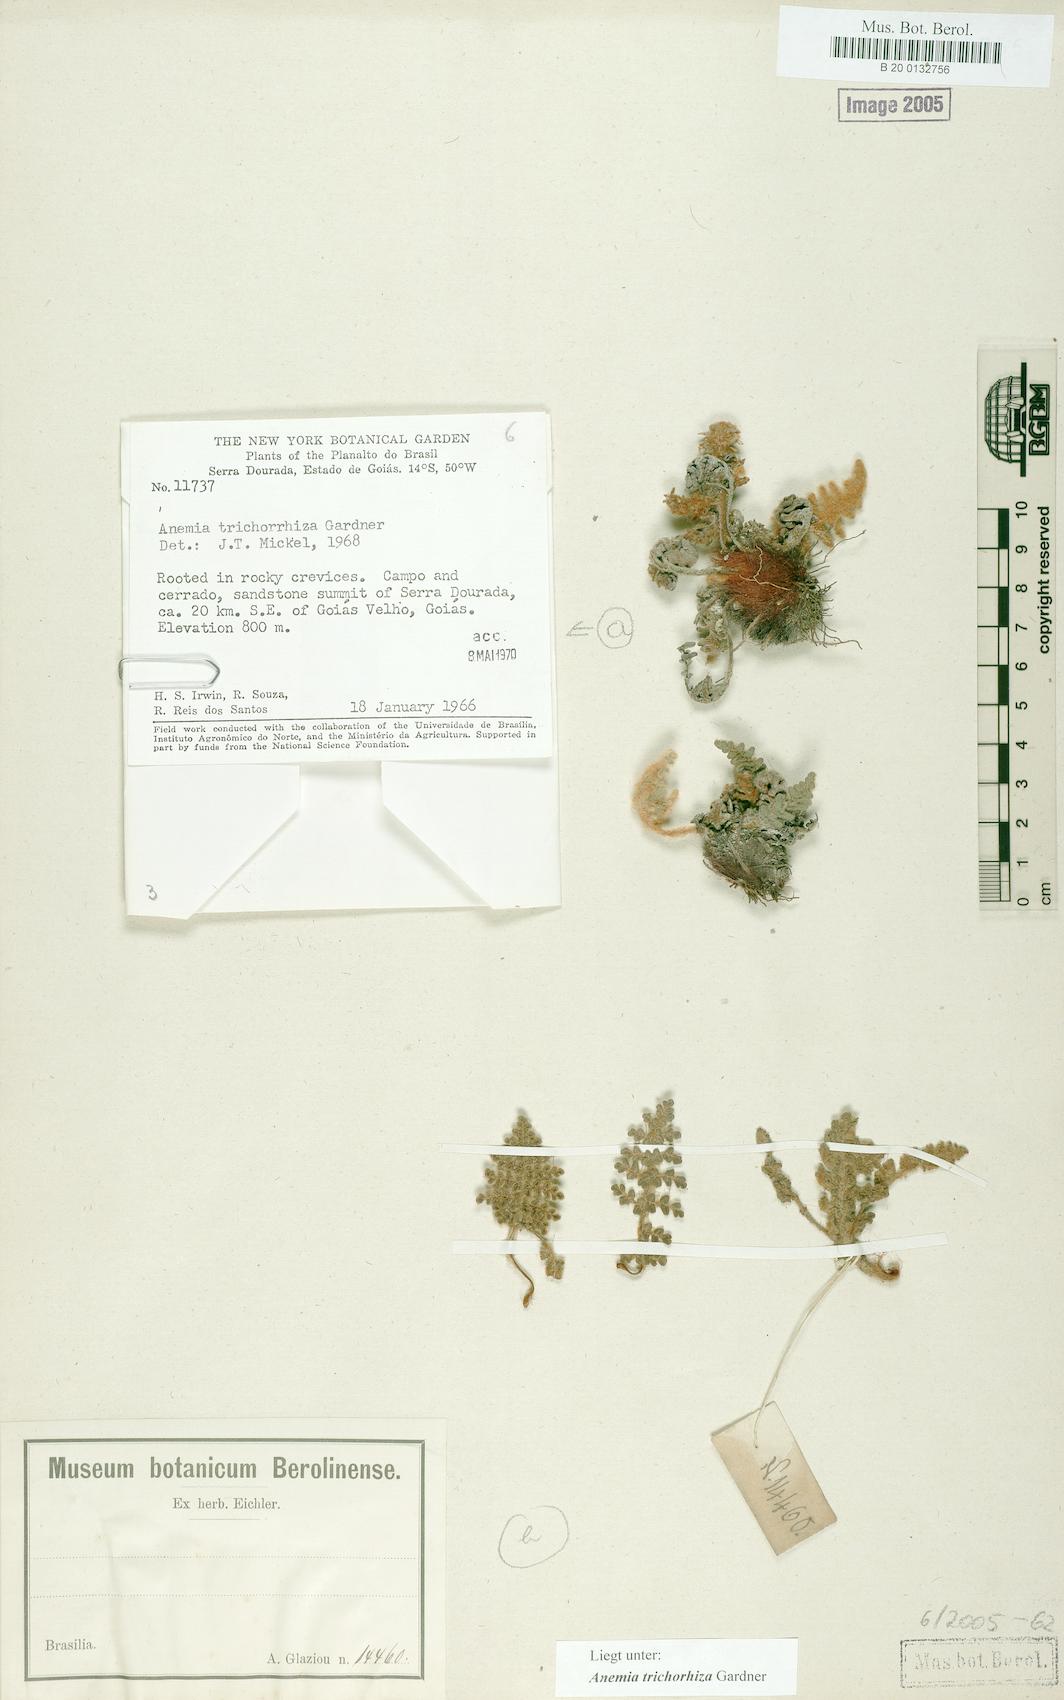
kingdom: Plantae
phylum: Tracheophyta
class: Polypodiopsida
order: Schizaeales
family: Anemiaceae
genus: Anemia
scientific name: Anemia trichorhiza
